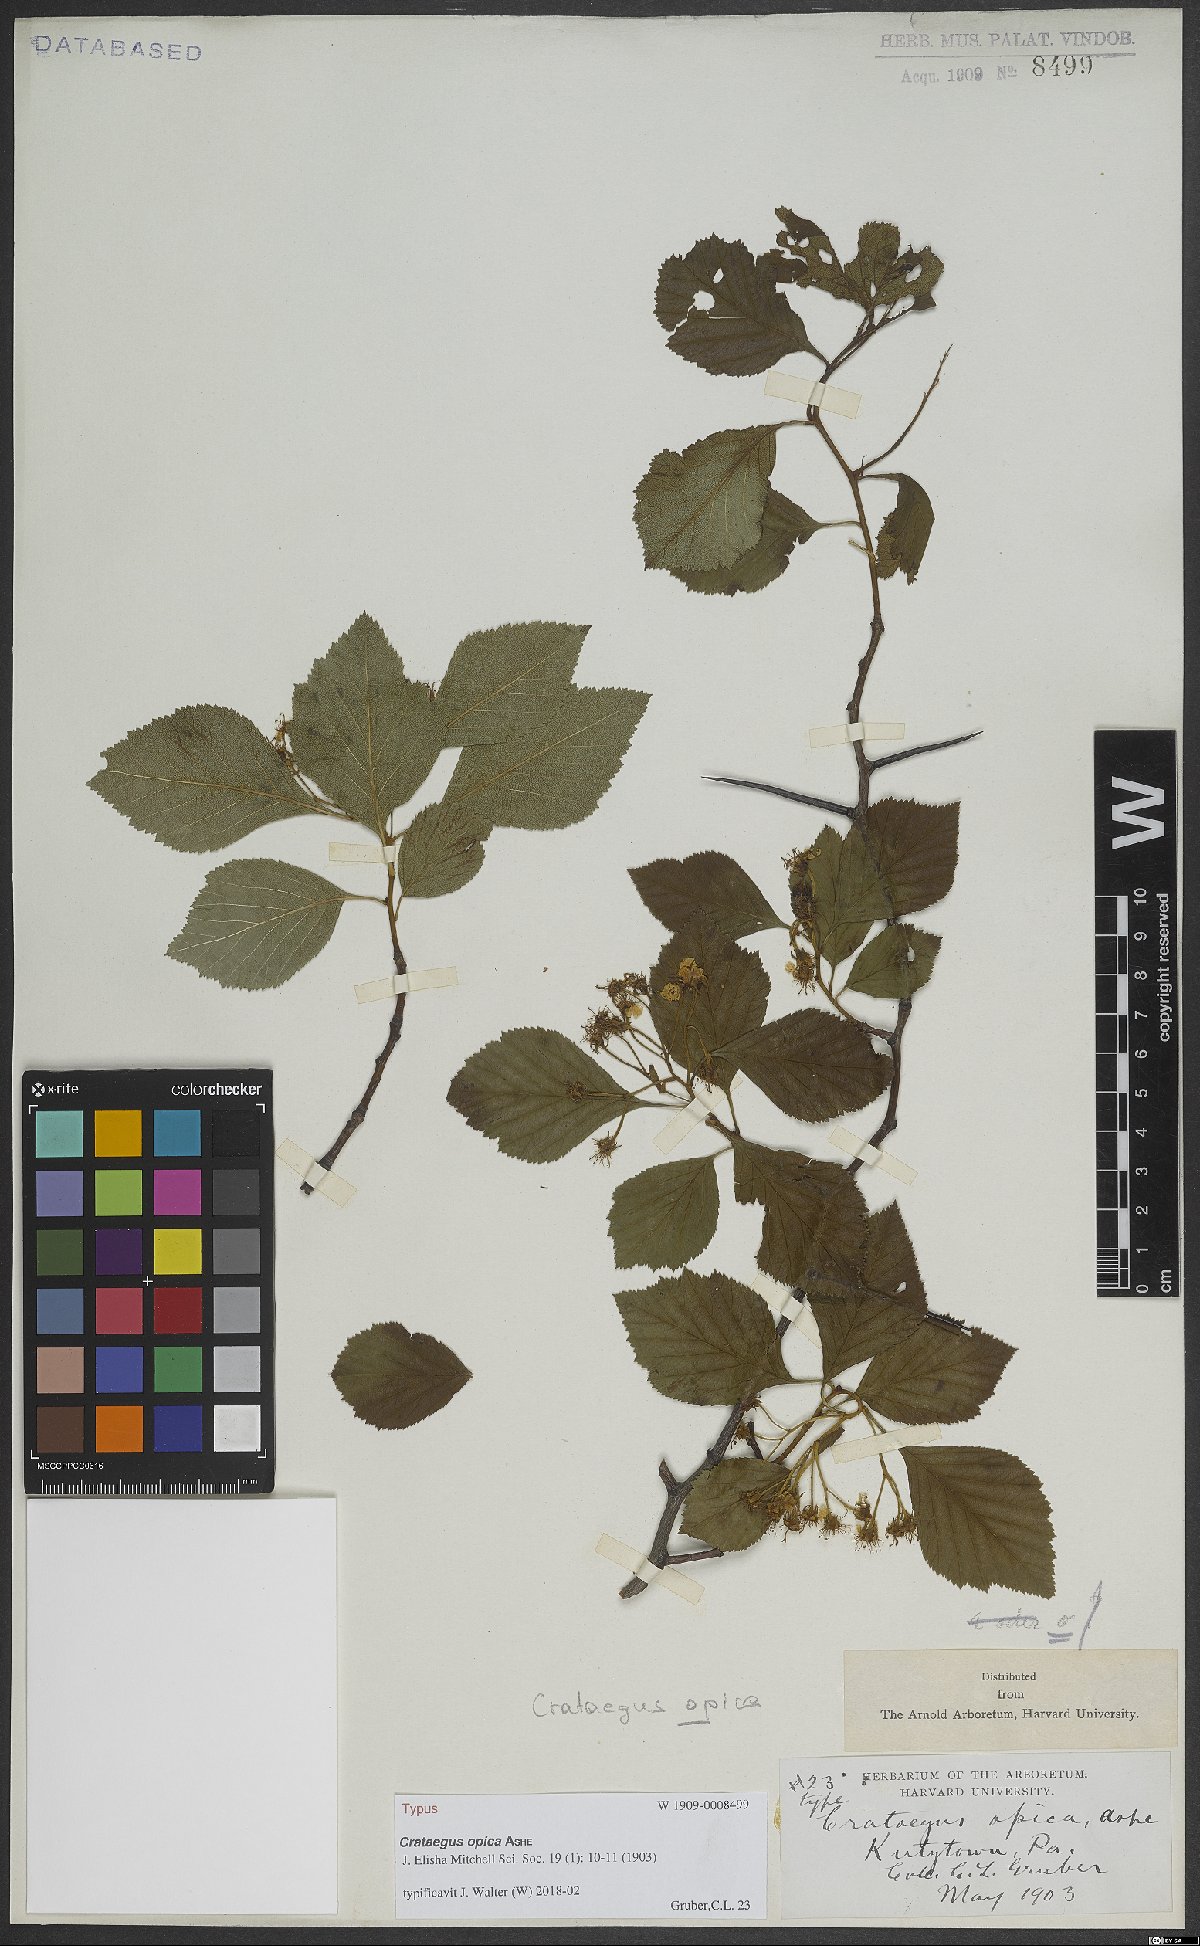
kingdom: Plantae
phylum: Tracheophyta
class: Magnoliopsida
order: Rosales
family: Rosaceae
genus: Crataegus
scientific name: Crataegus opaca
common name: Apple haw
